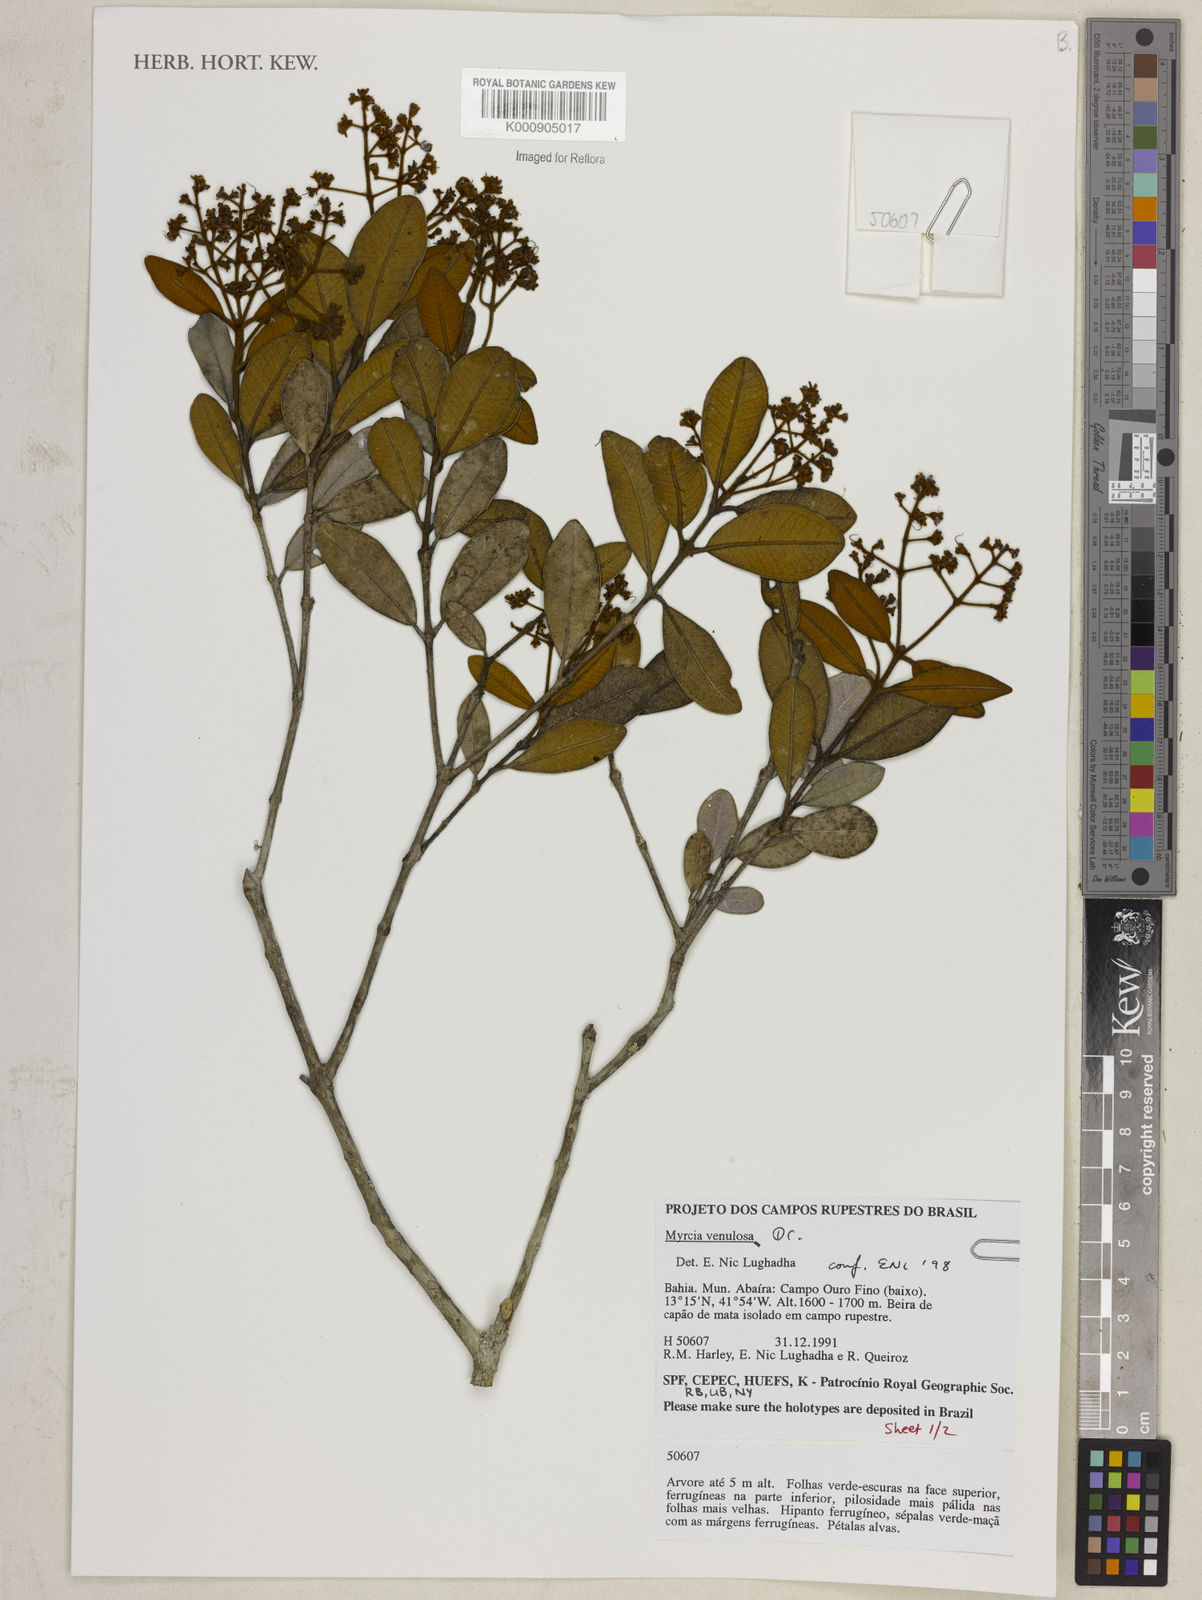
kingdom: Plantae
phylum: Tracheophyta
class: Magnoliopsida
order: Myrtales
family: Myrtaceae
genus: Myrcia
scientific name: Myrcia venulosa
